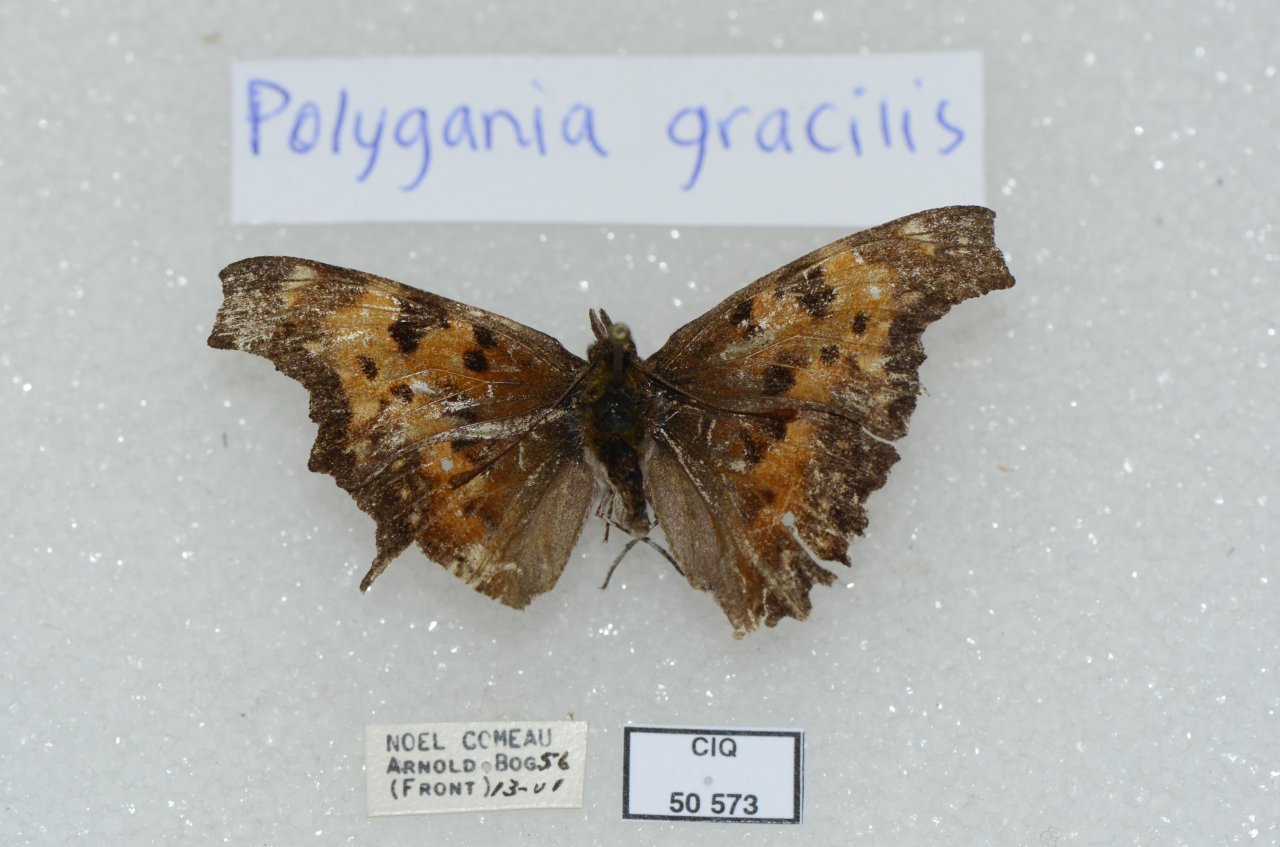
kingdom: Animalia
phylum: Arthropoda
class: Insecta
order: Lepidoptera
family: Nymphalidae
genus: Polygonia
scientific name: Polygonia gracilis
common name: Hoary Comma
